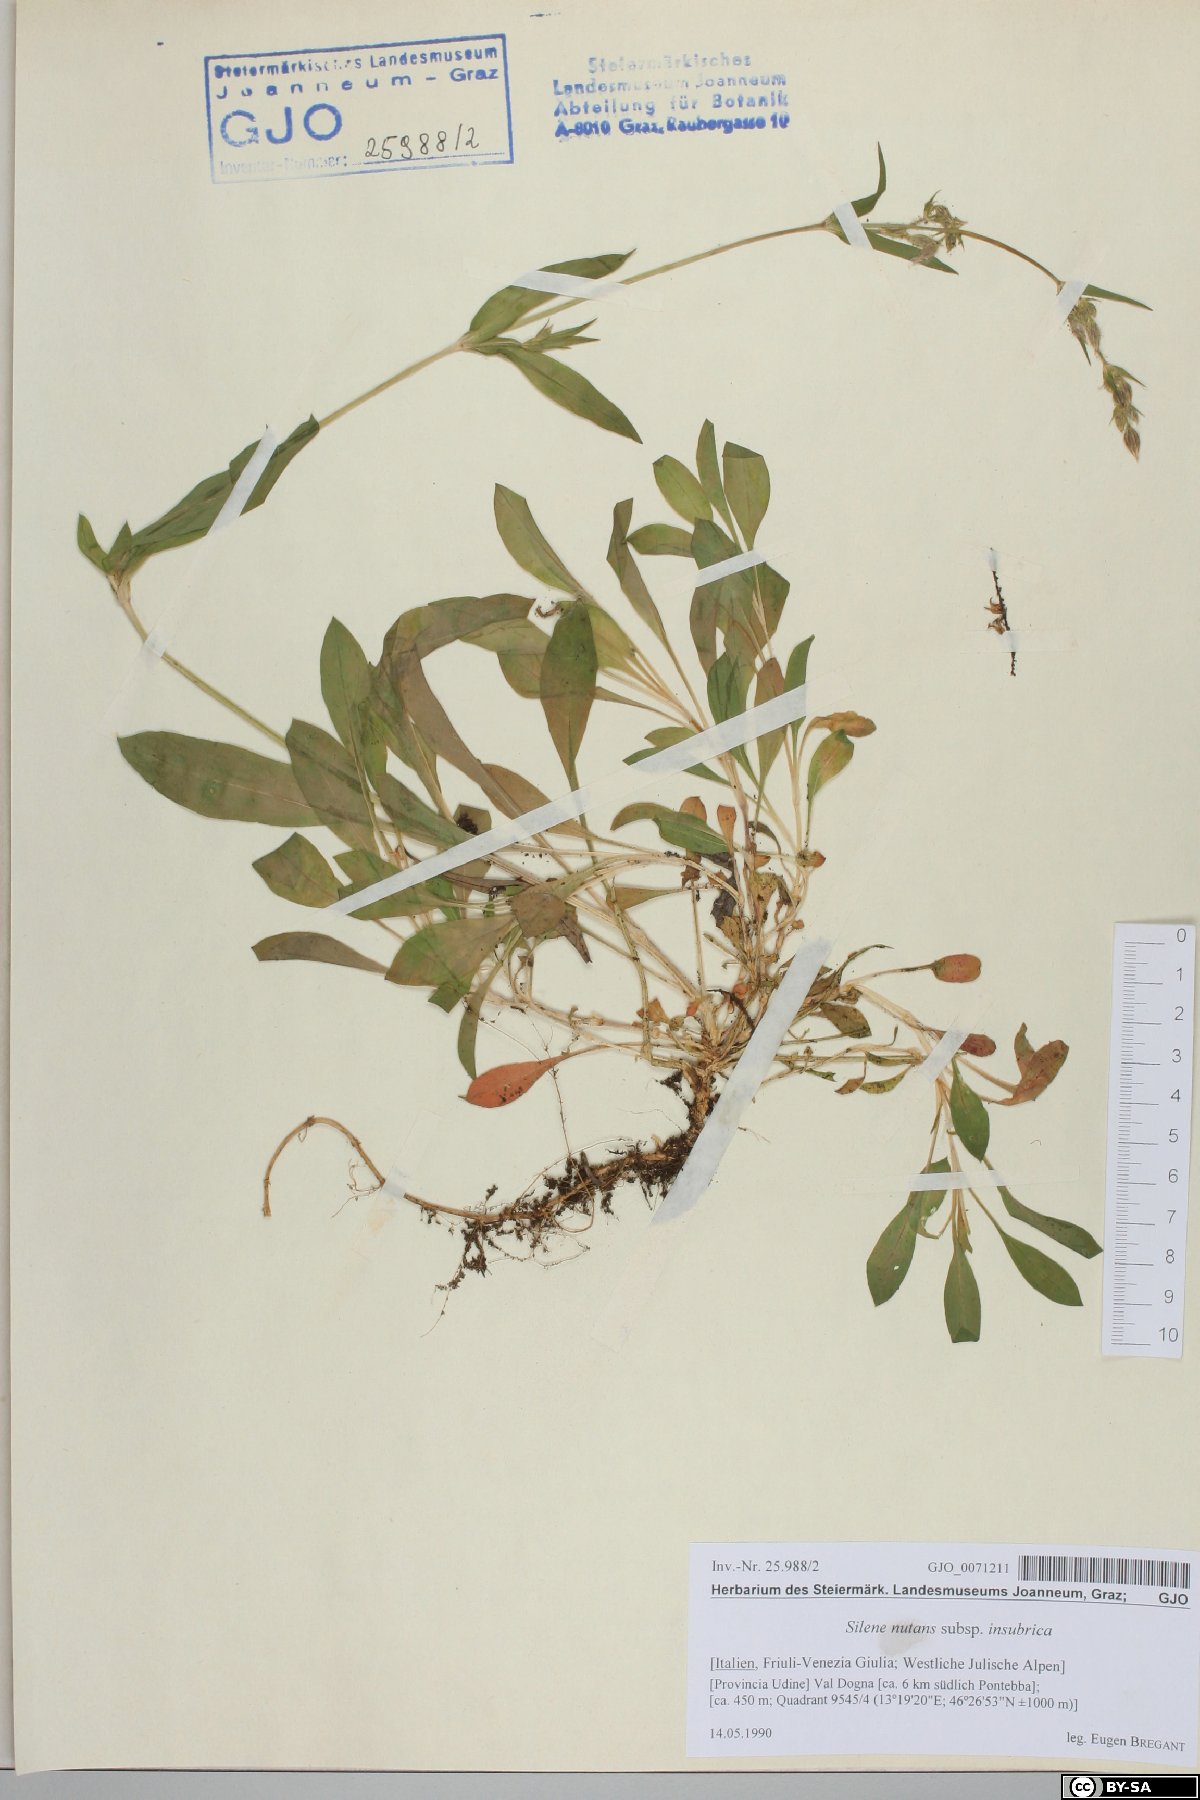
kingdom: Plantae
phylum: Tracheophyta
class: Magnoliopsida
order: Caryophyllales
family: Caryophyllaceae
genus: Silene
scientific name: Silene nutans
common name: Nottingham catchfly
